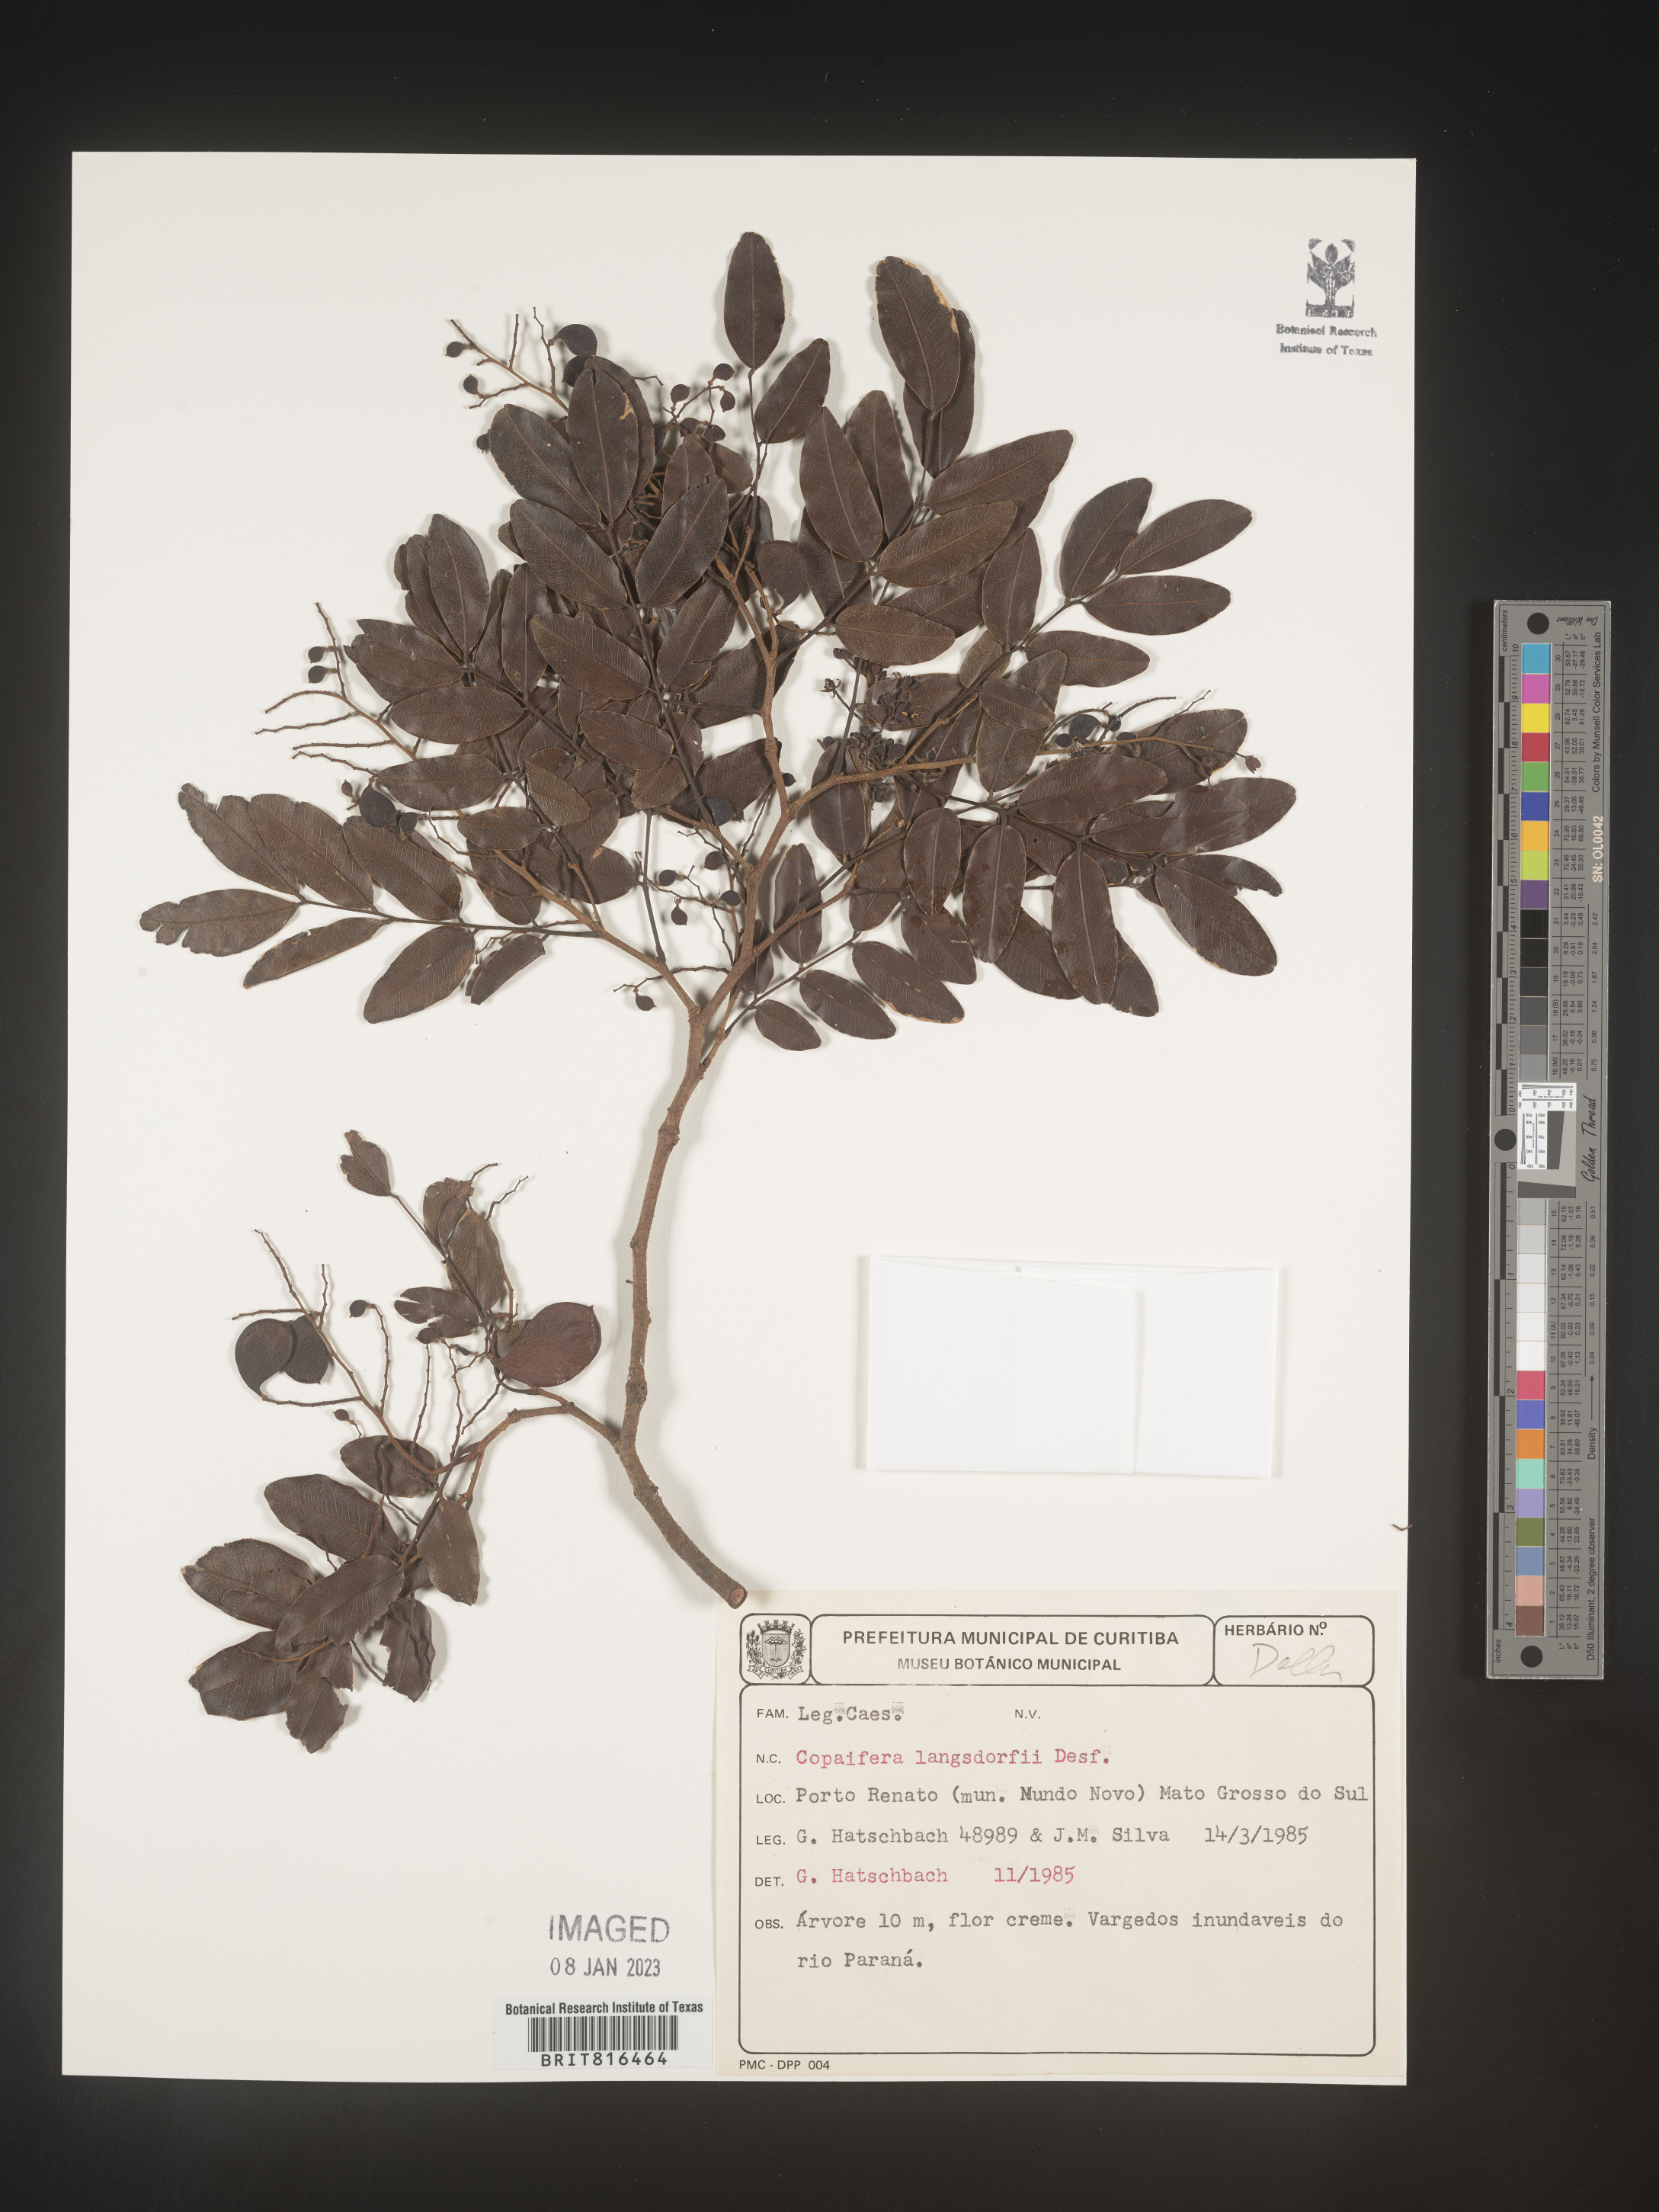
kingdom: Plantae
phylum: Tracheophyta
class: Magnoliopsida
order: Fabales
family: Fabaceae
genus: Copaifera
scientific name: Copaifera
